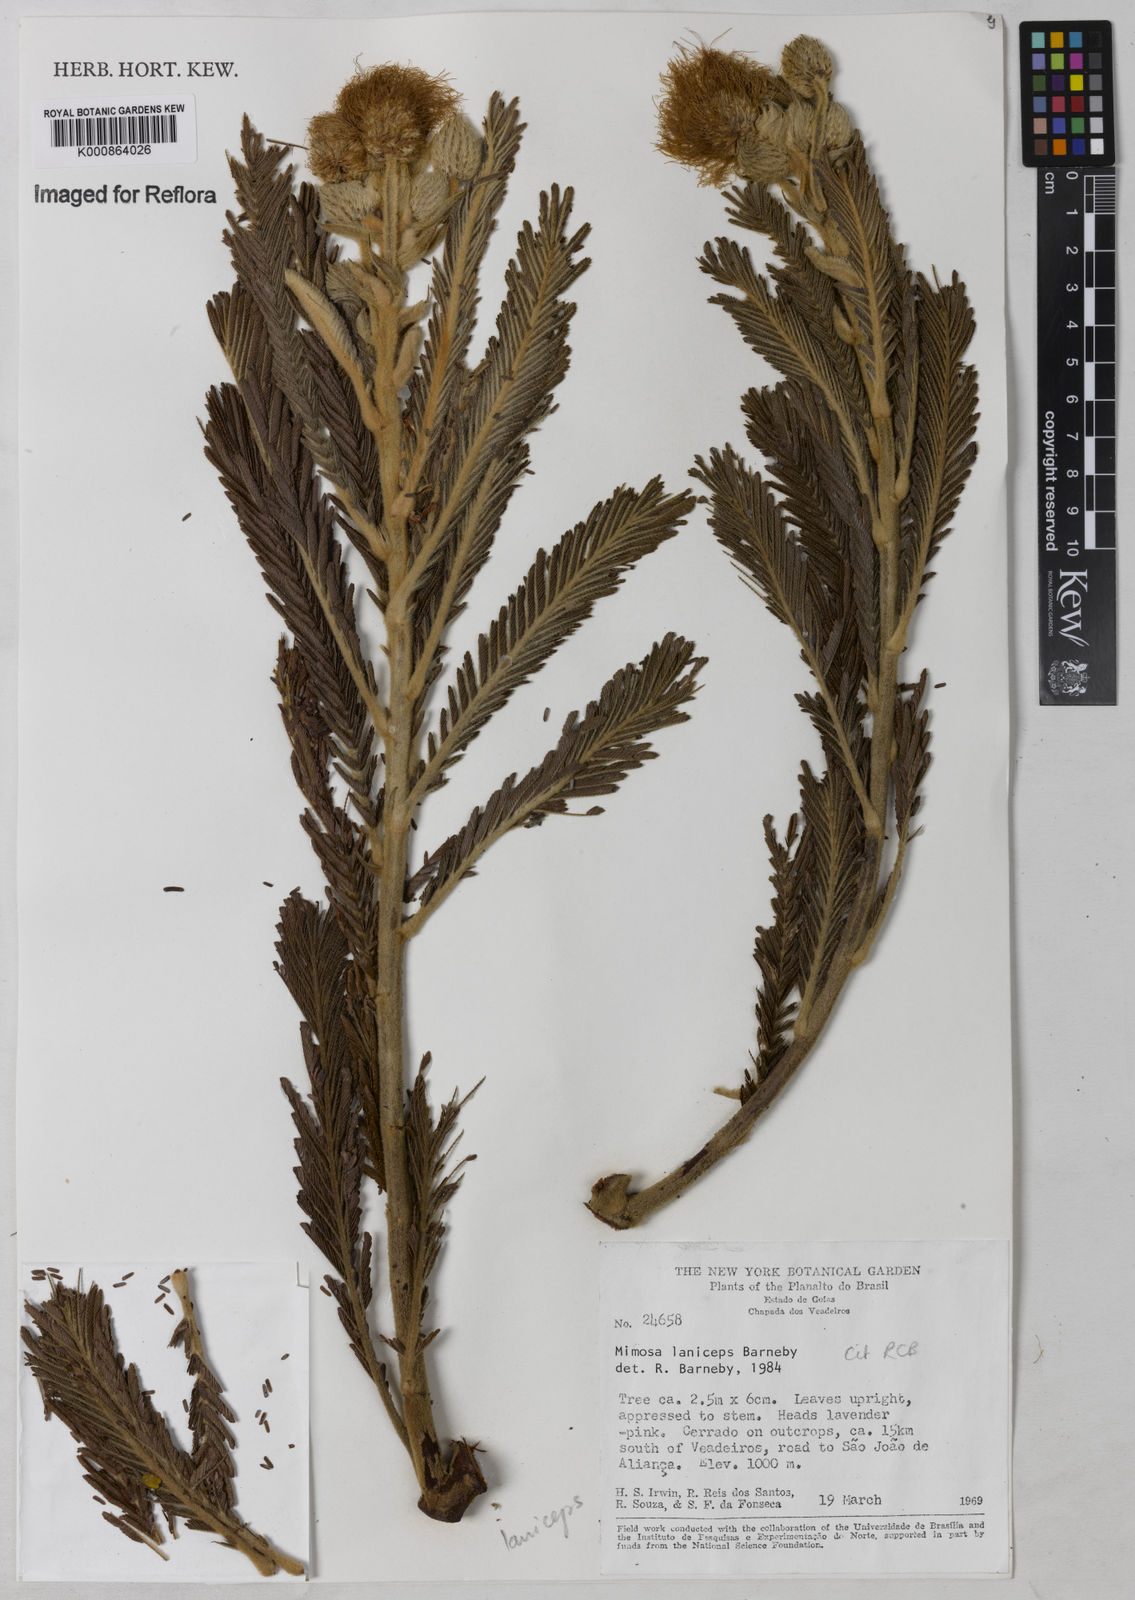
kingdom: Plantae
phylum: Tracheophyta
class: Magnoliopsida
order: Fabales
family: Fabaceae
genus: Mimosa
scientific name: Mimosa laniceps
